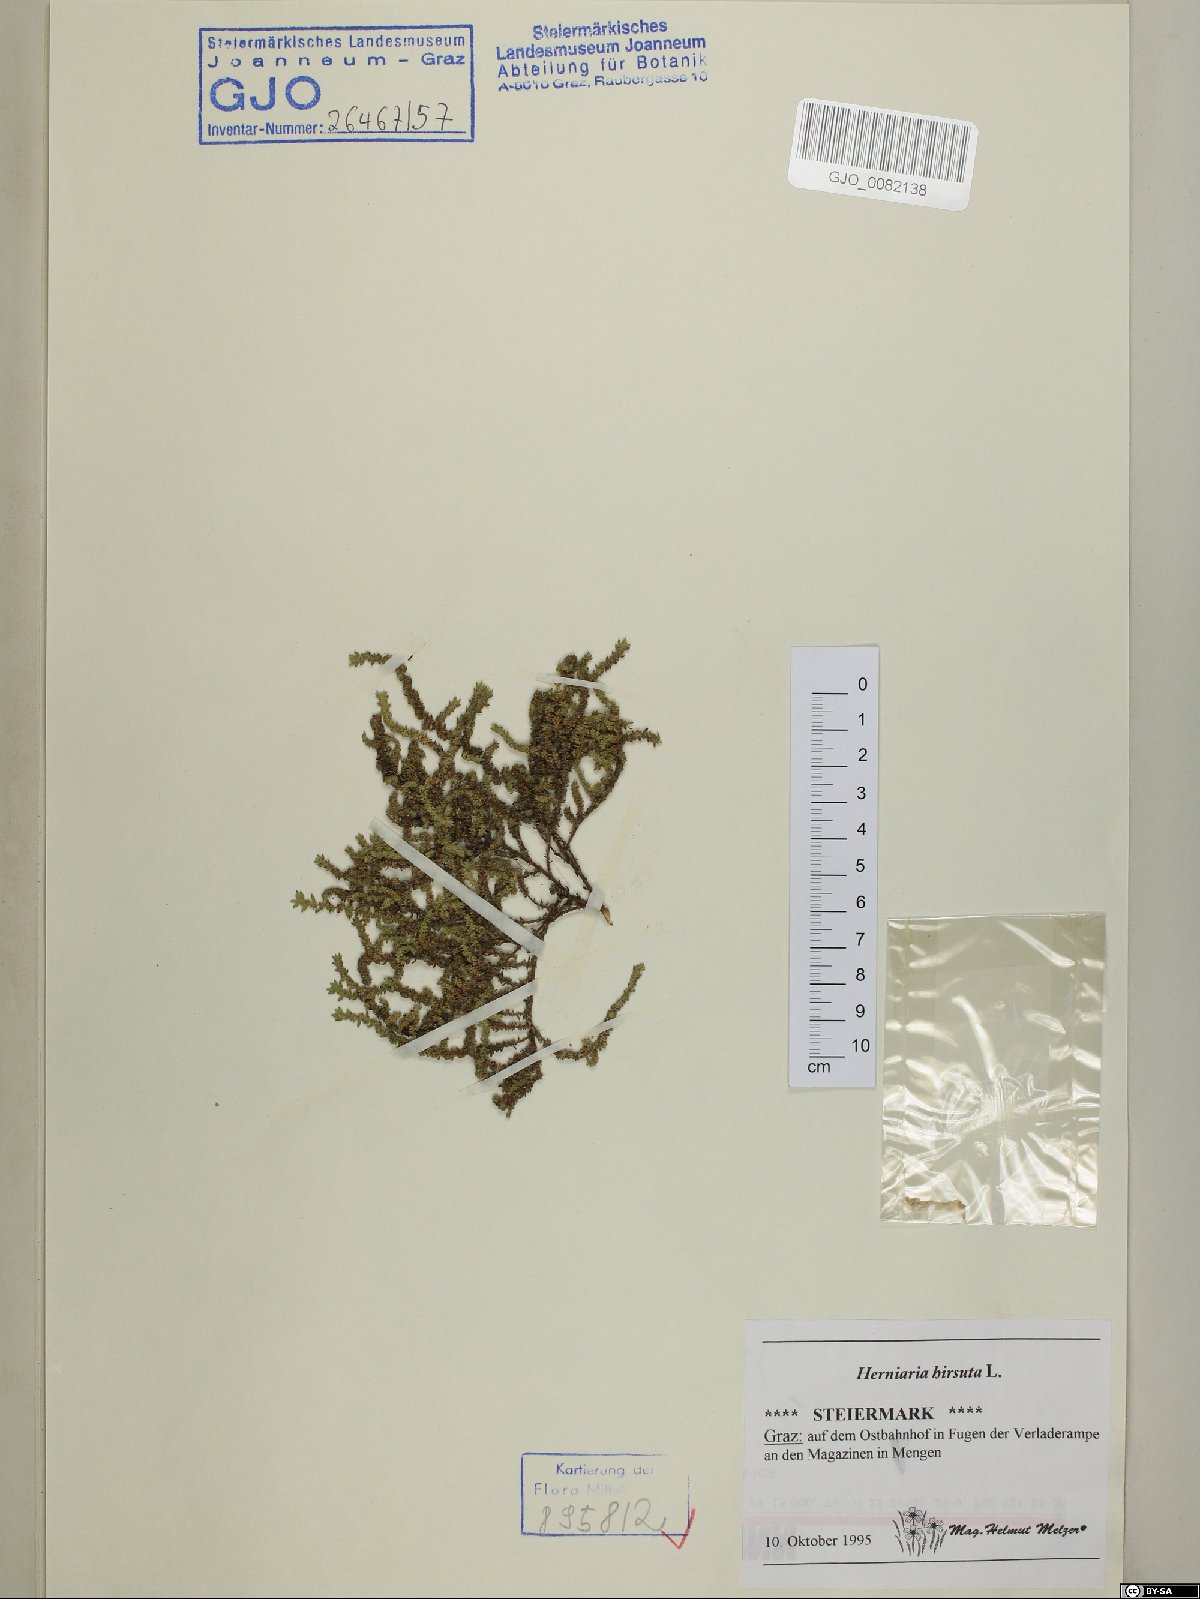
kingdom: Plantae
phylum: Tracheophyta
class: Magnoliopsida
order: Caryophyllales
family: Caryophyllaceae
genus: Herniaria
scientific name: Herniaria hirsuta
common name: Hairy rupturewort
